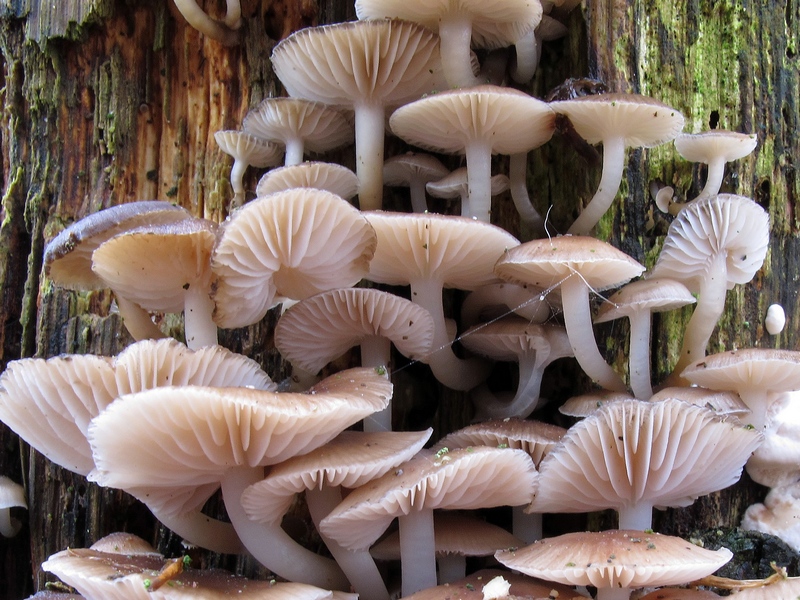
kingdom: Fungi
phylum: Basidiomycota
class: Agaricomycetes
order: Agaricales
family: Mycenaceae
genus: Mycena
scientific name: Mycena tintinnabulum
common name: vinter-huesvamp
